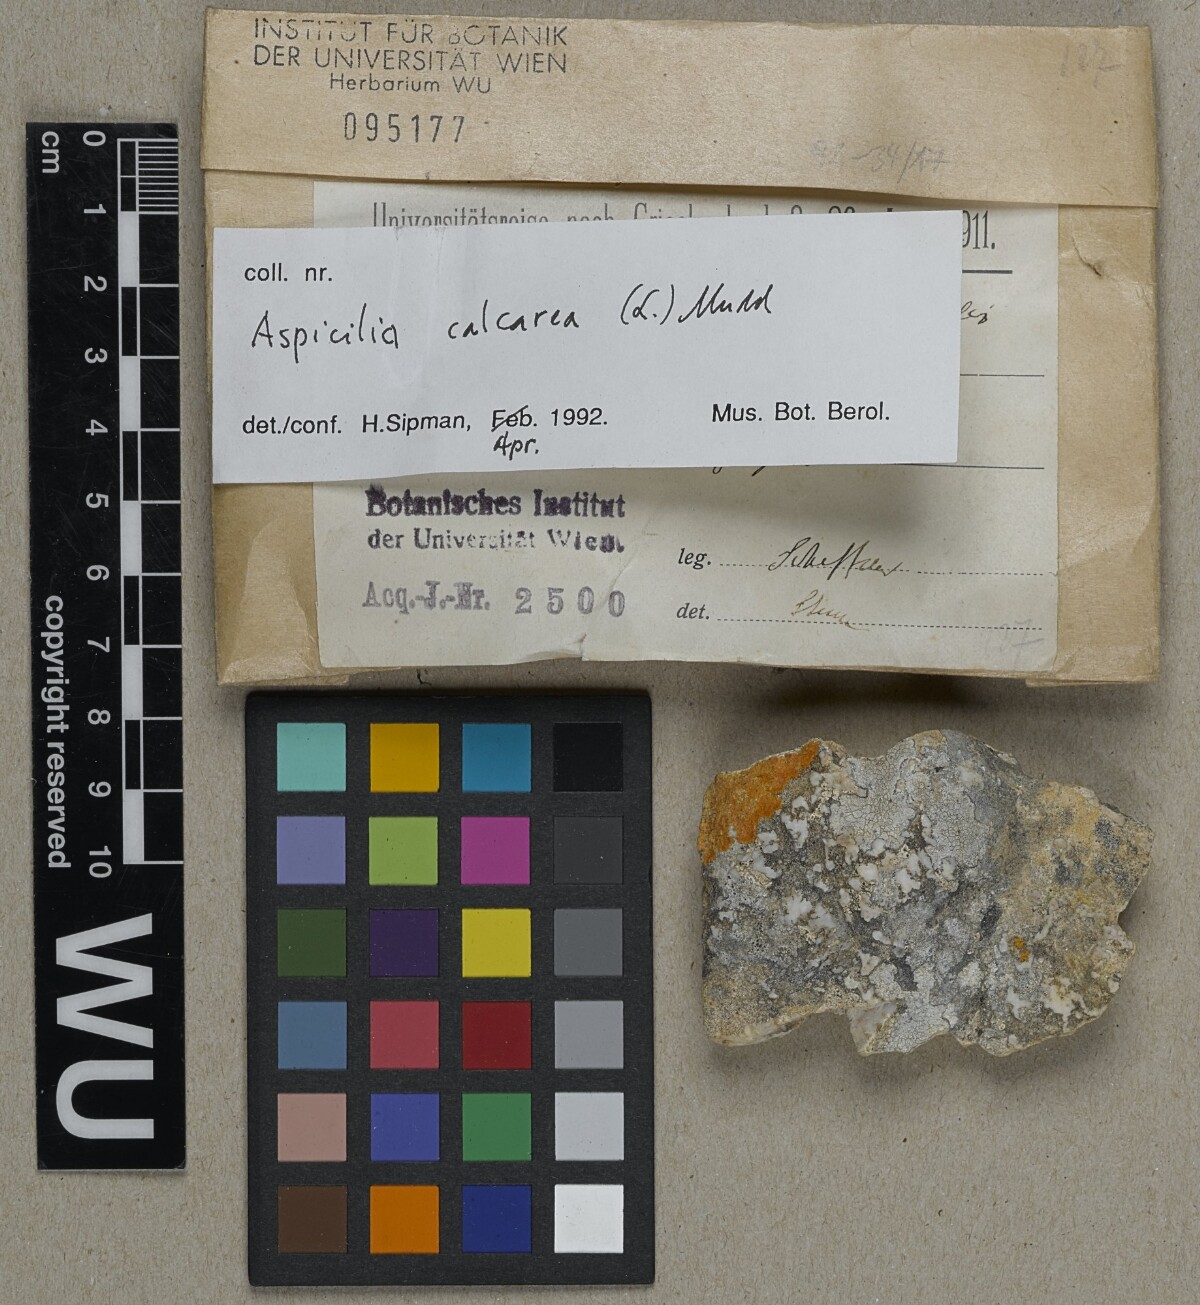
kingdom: Fungi
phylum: Ascomycota
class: Lecanoromycetes
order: Pertusariales
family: Megasporaceae
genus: Circinaria
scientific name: Circinaria calcarea
